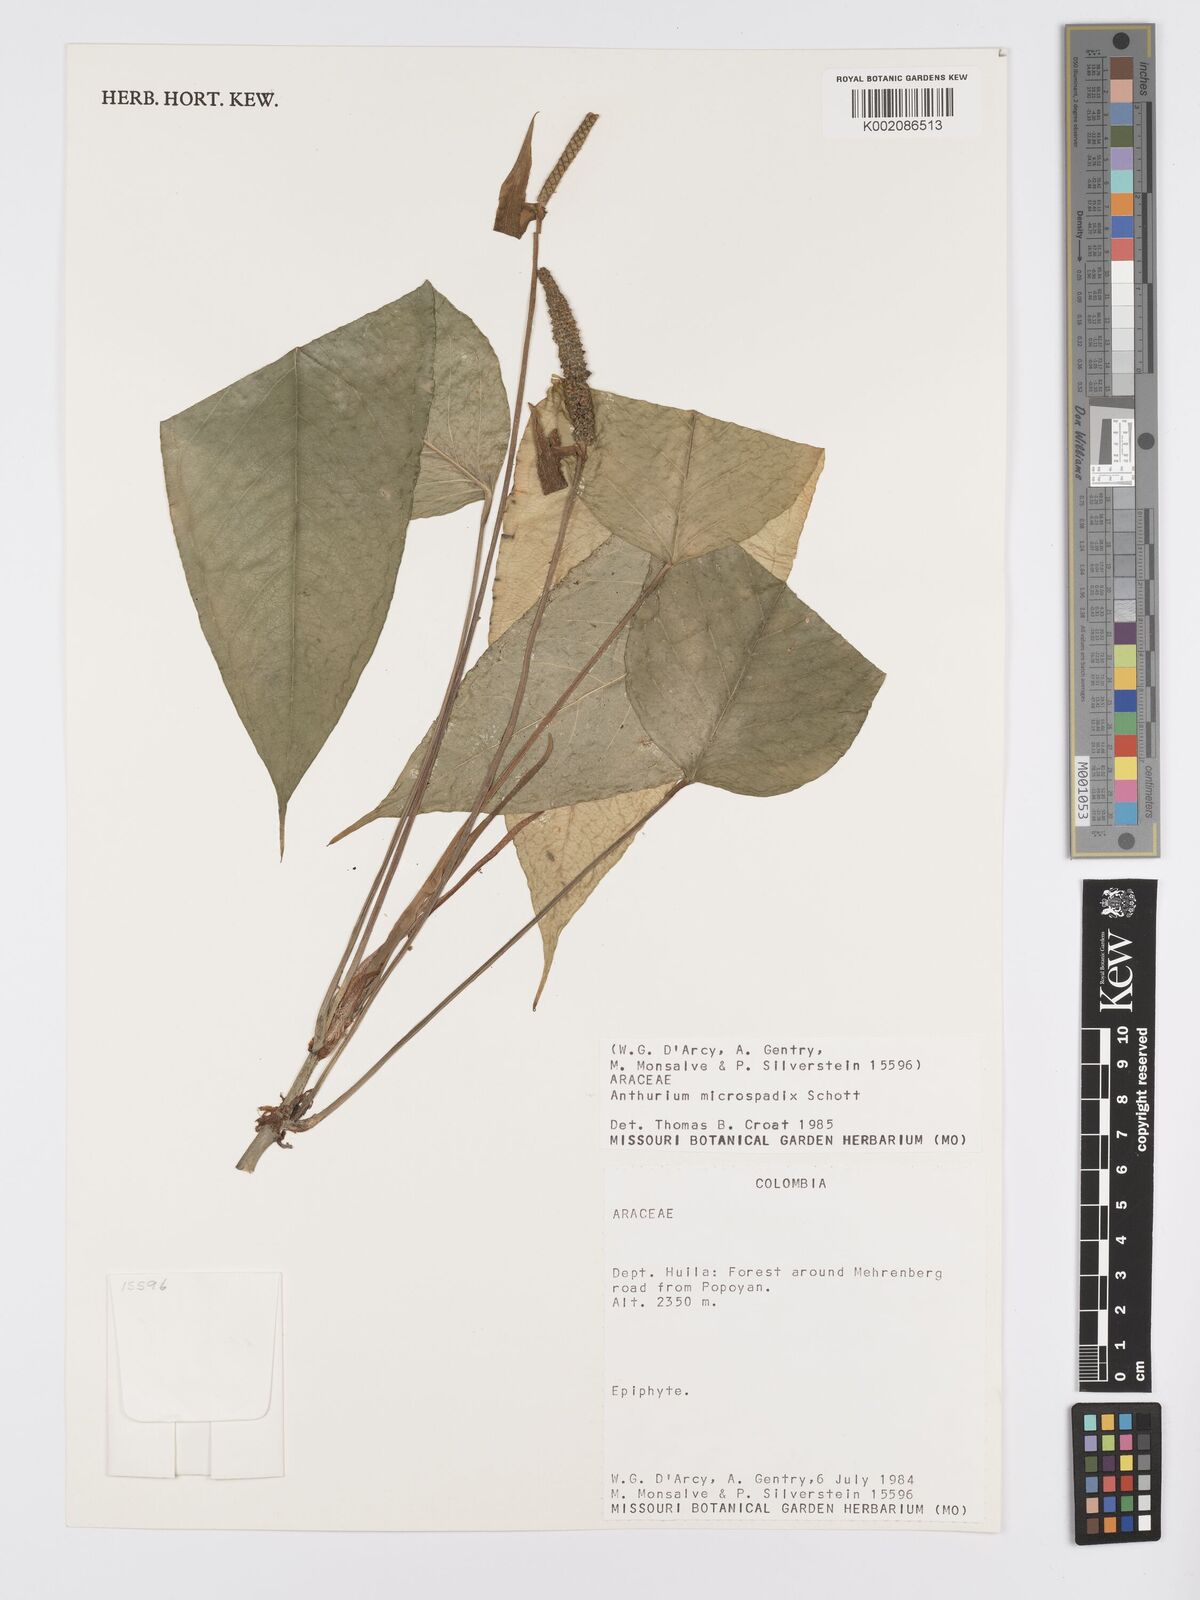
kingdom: Plantae
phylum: Tracheophyta
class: Liliopsida
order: Alismatales
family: Araceae
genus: Anthurium
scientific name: Anthurium microspadix
